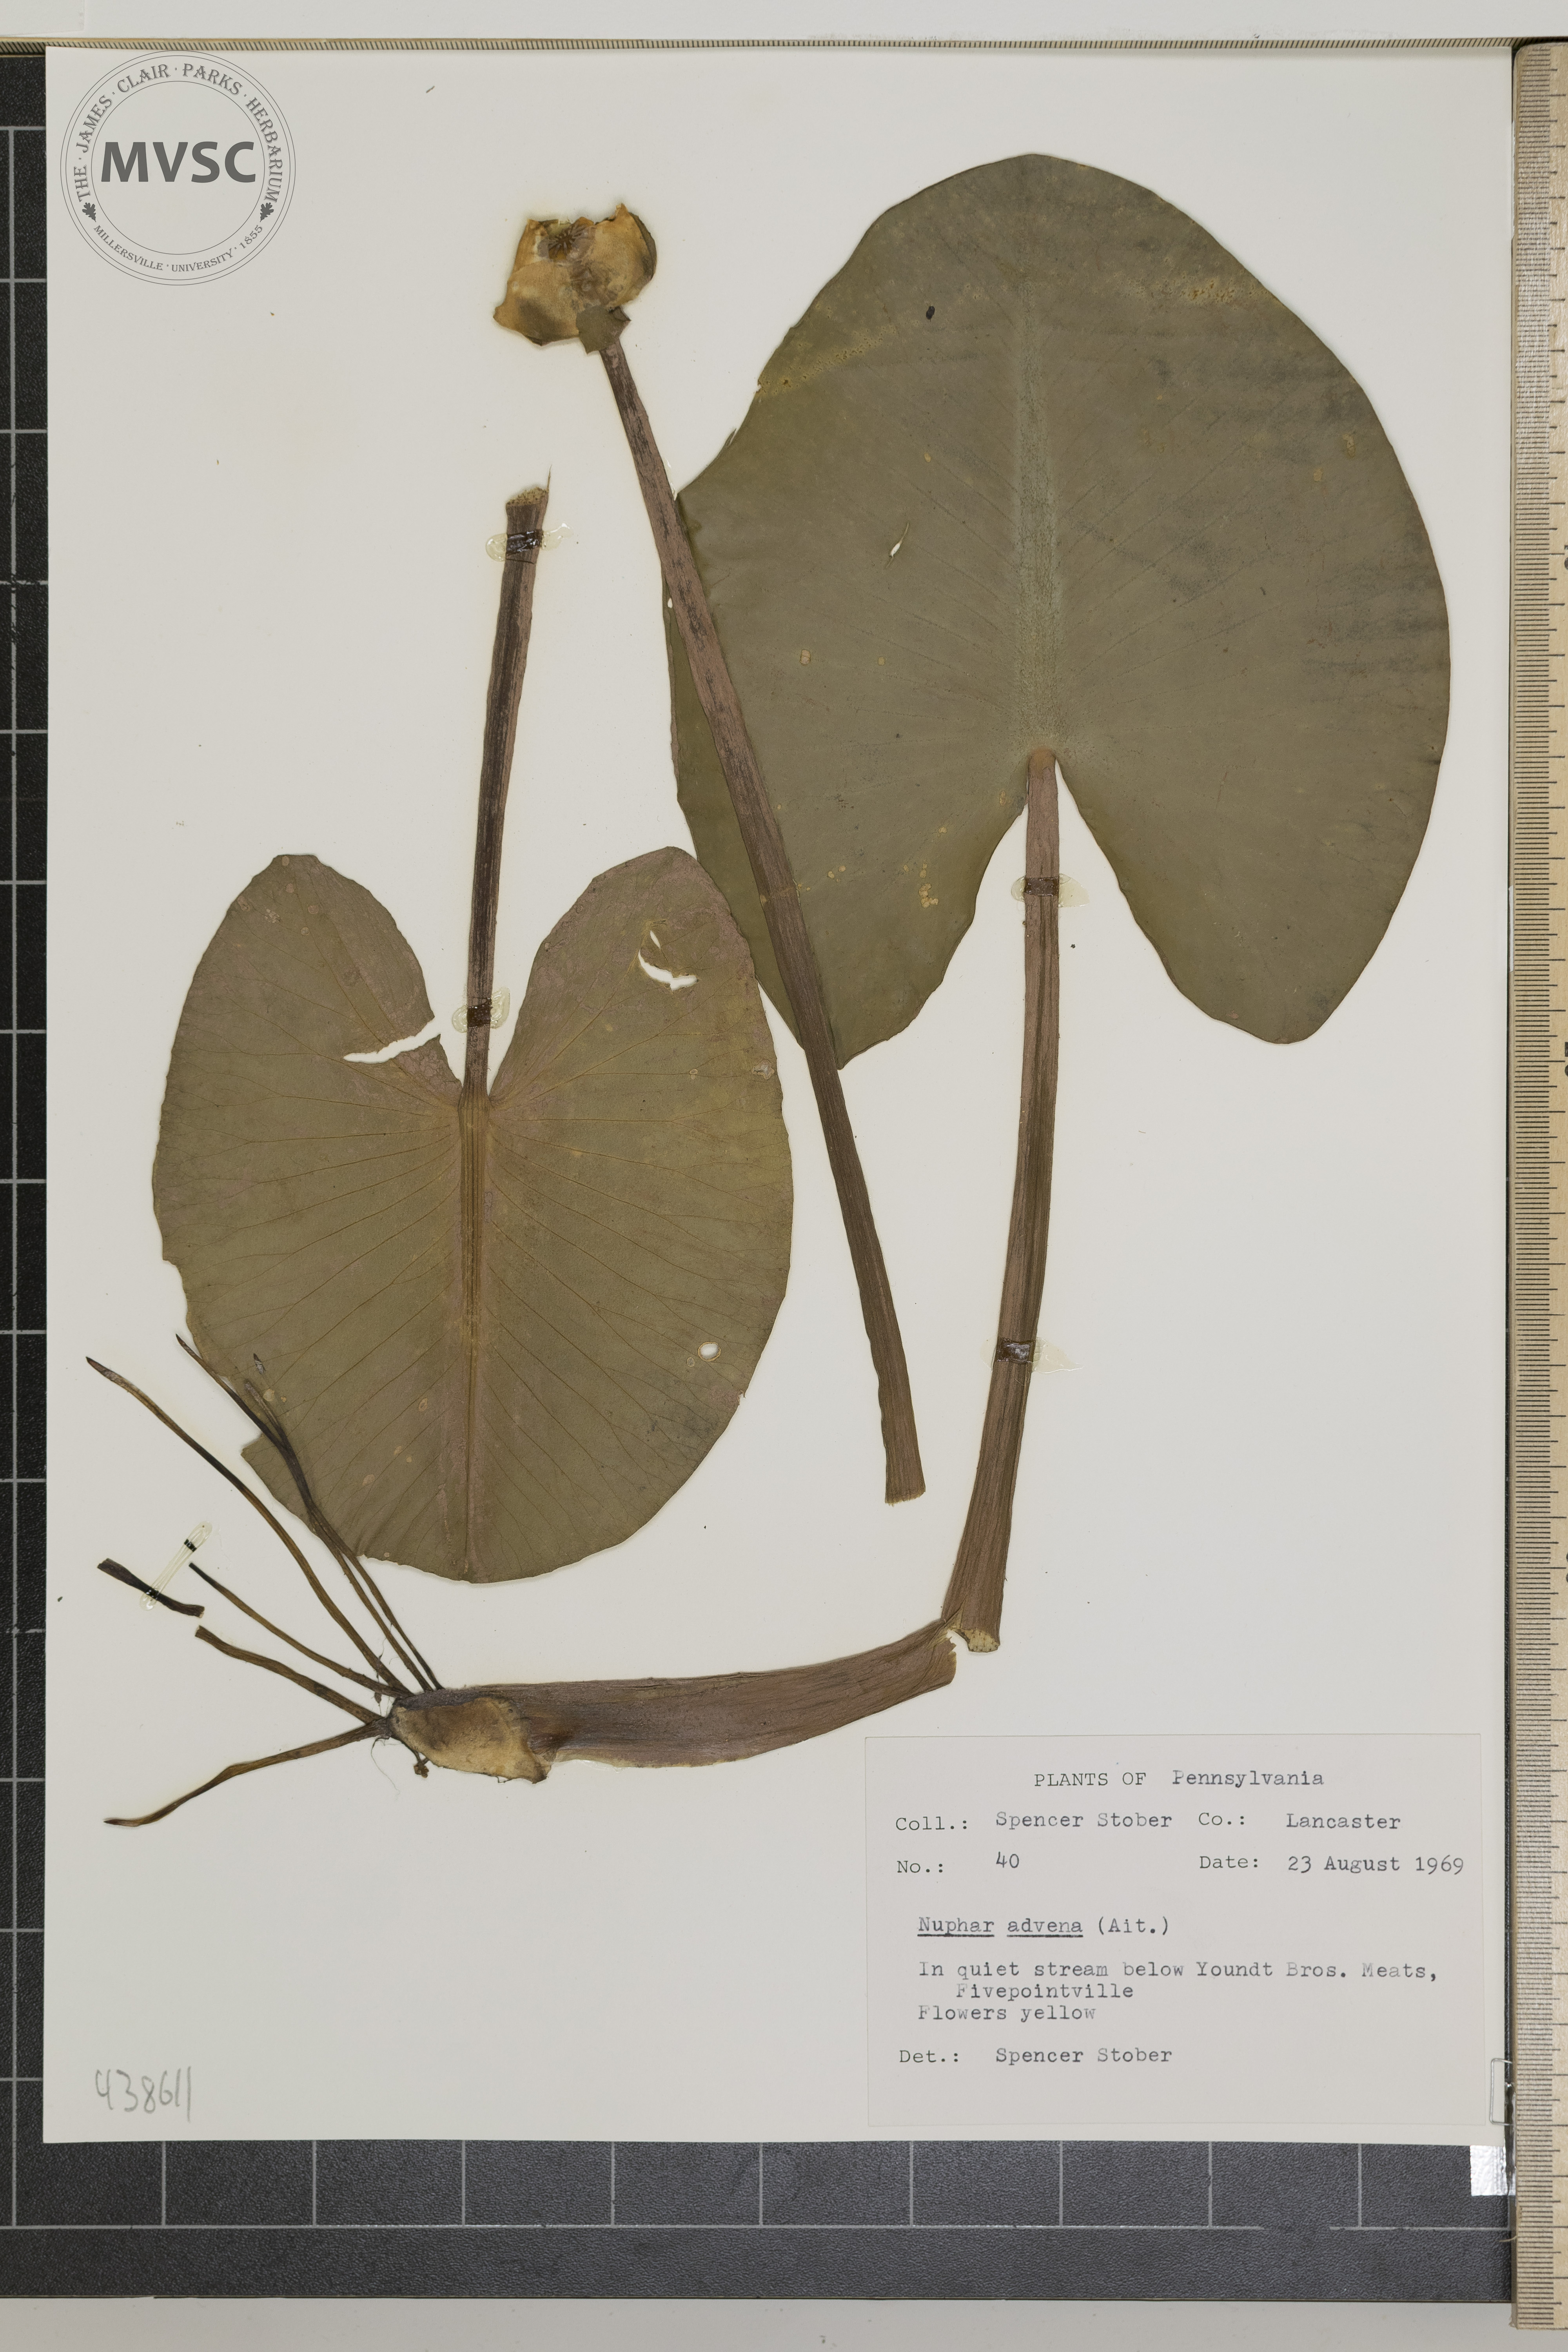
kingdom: Plantae
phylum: Tracheophyta
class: Magnoliopsida
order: Nymphaeales
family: Nymphaeaceae
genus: Nuphar
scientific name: Nuphar advena
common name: Spatter-dock
